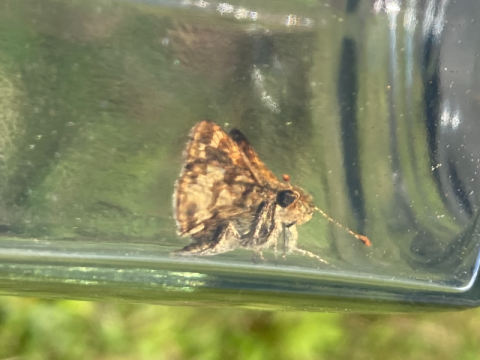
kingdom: Animalia
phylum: Arthropoda
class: Insecta
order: Lepidoptera
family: Hesperiidae
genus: Polites
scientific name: Polites coras
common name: Peck's Skipper
